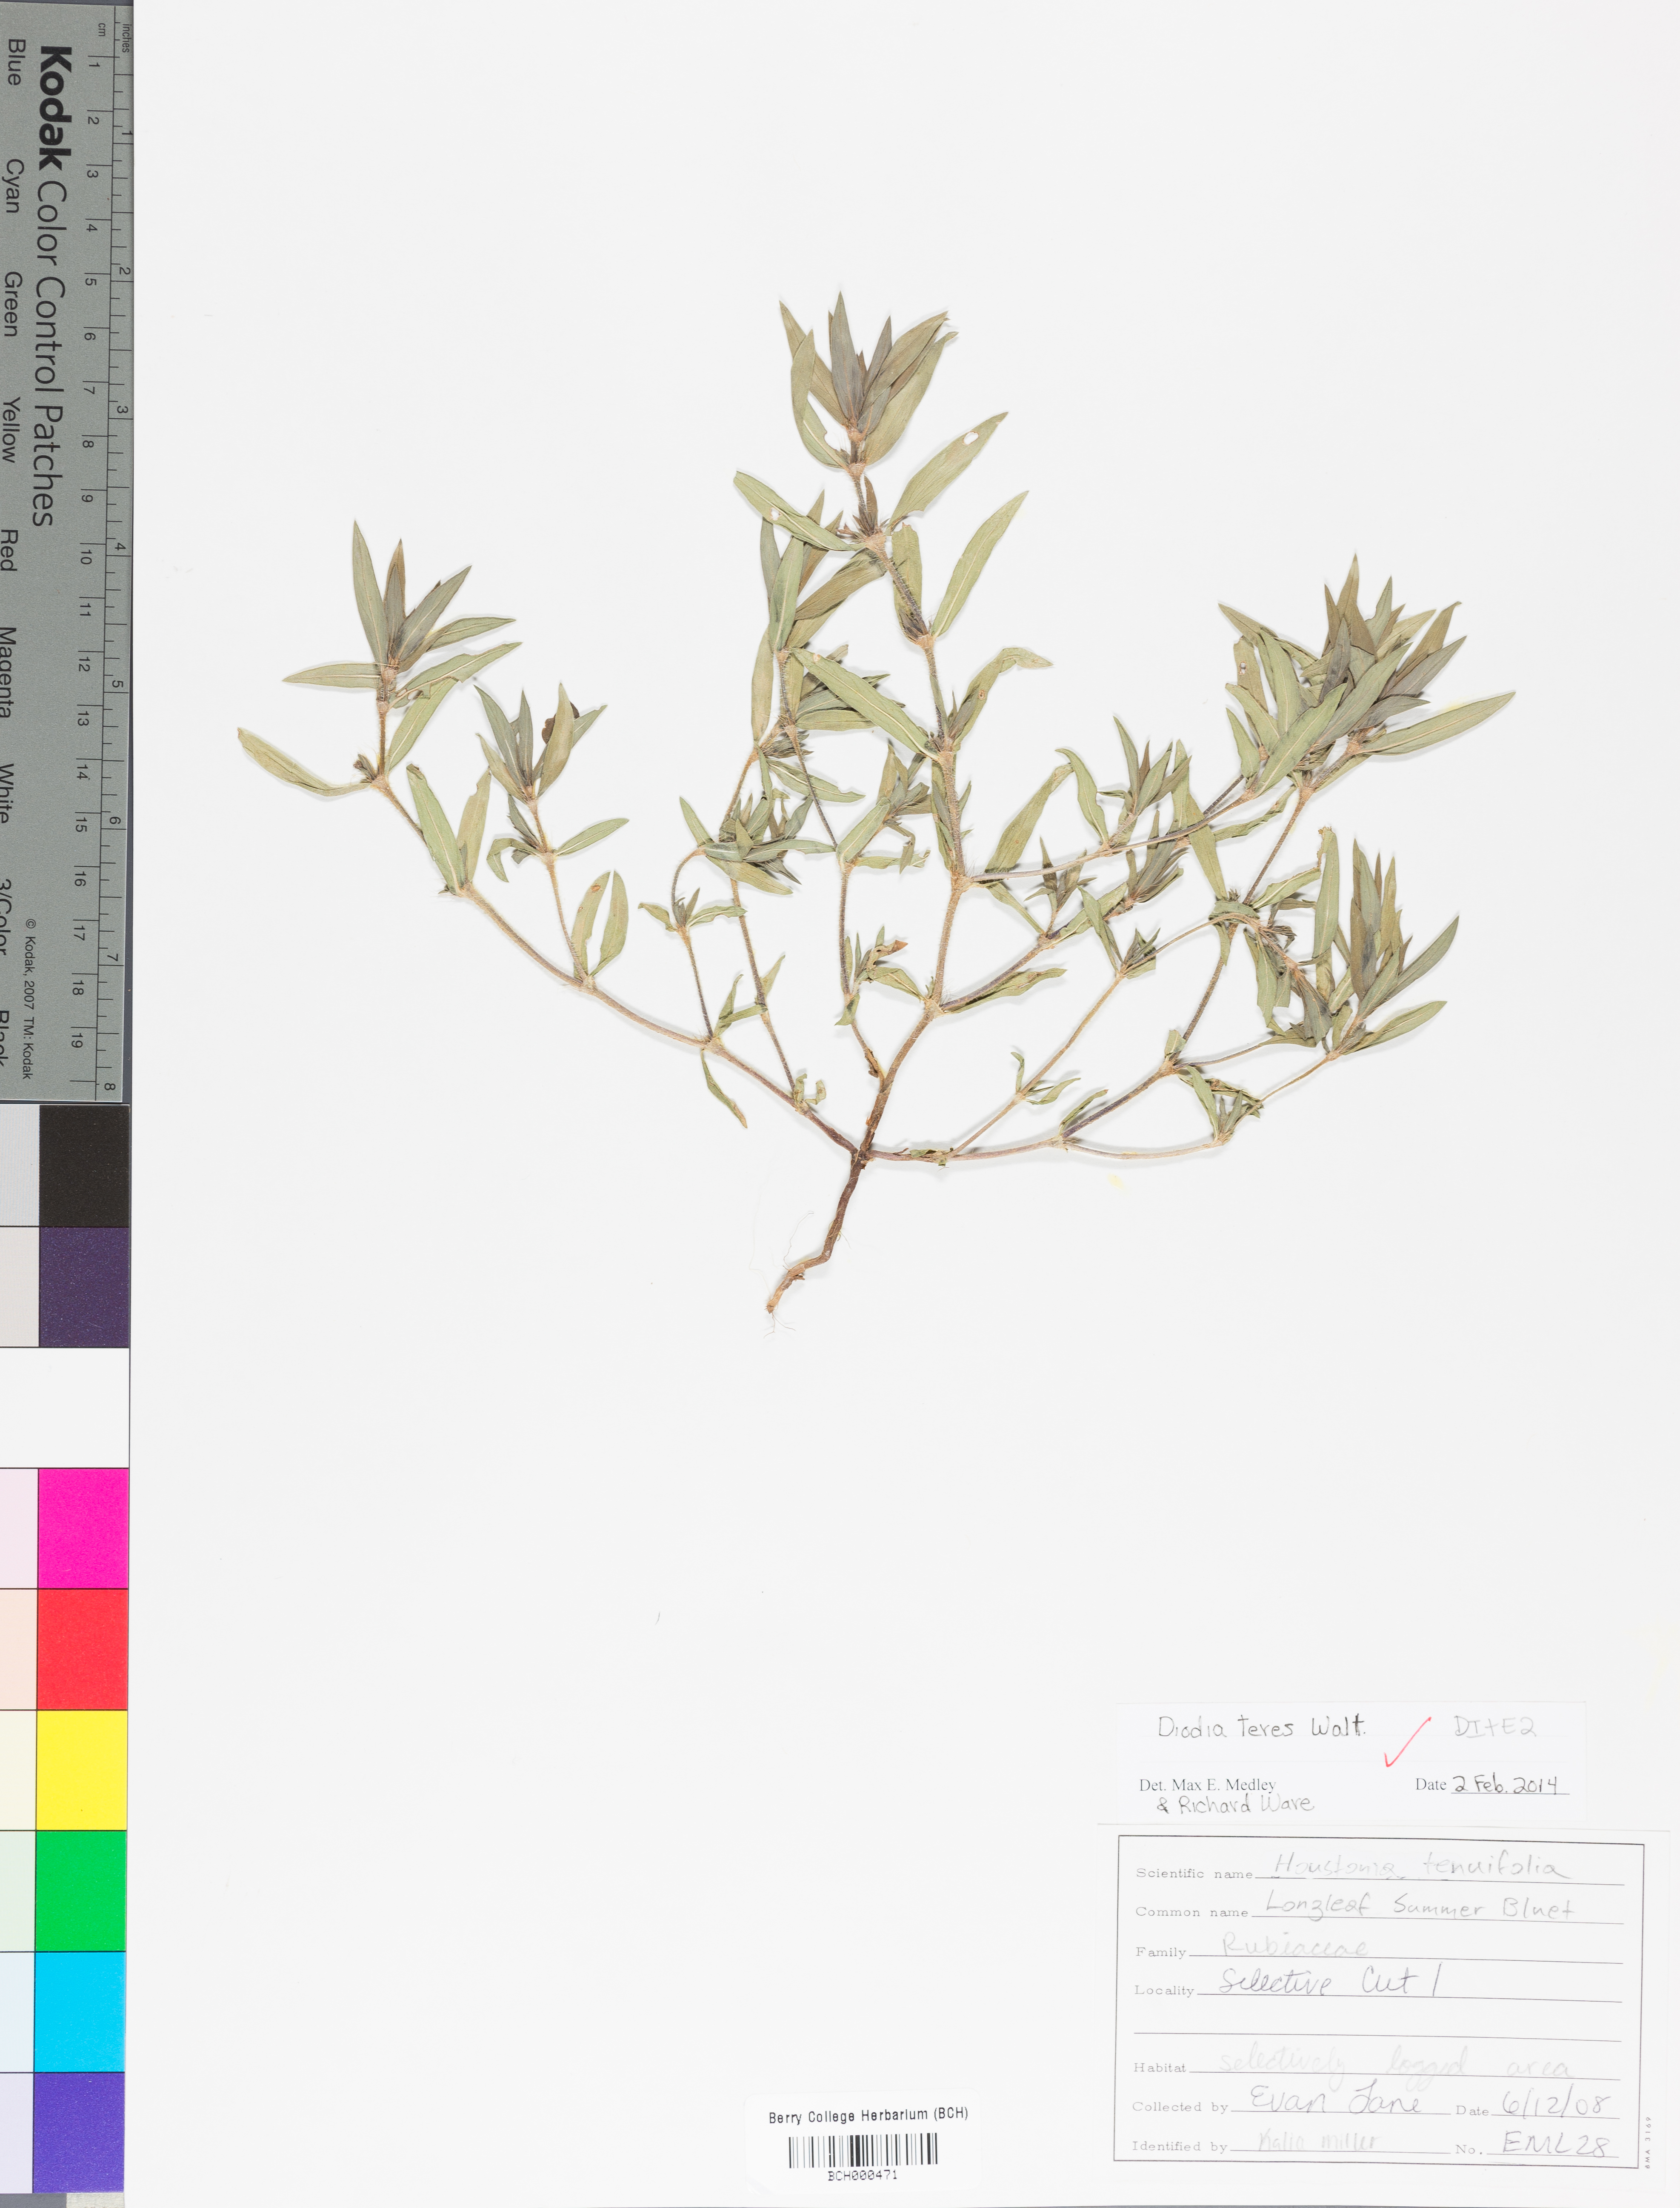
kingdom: Plantae
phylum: Tracheophyta
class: Magnoliopsida
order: Gentianales
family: Rubiaceae
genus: Hexasepalum
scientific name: Hexasepalum teres
